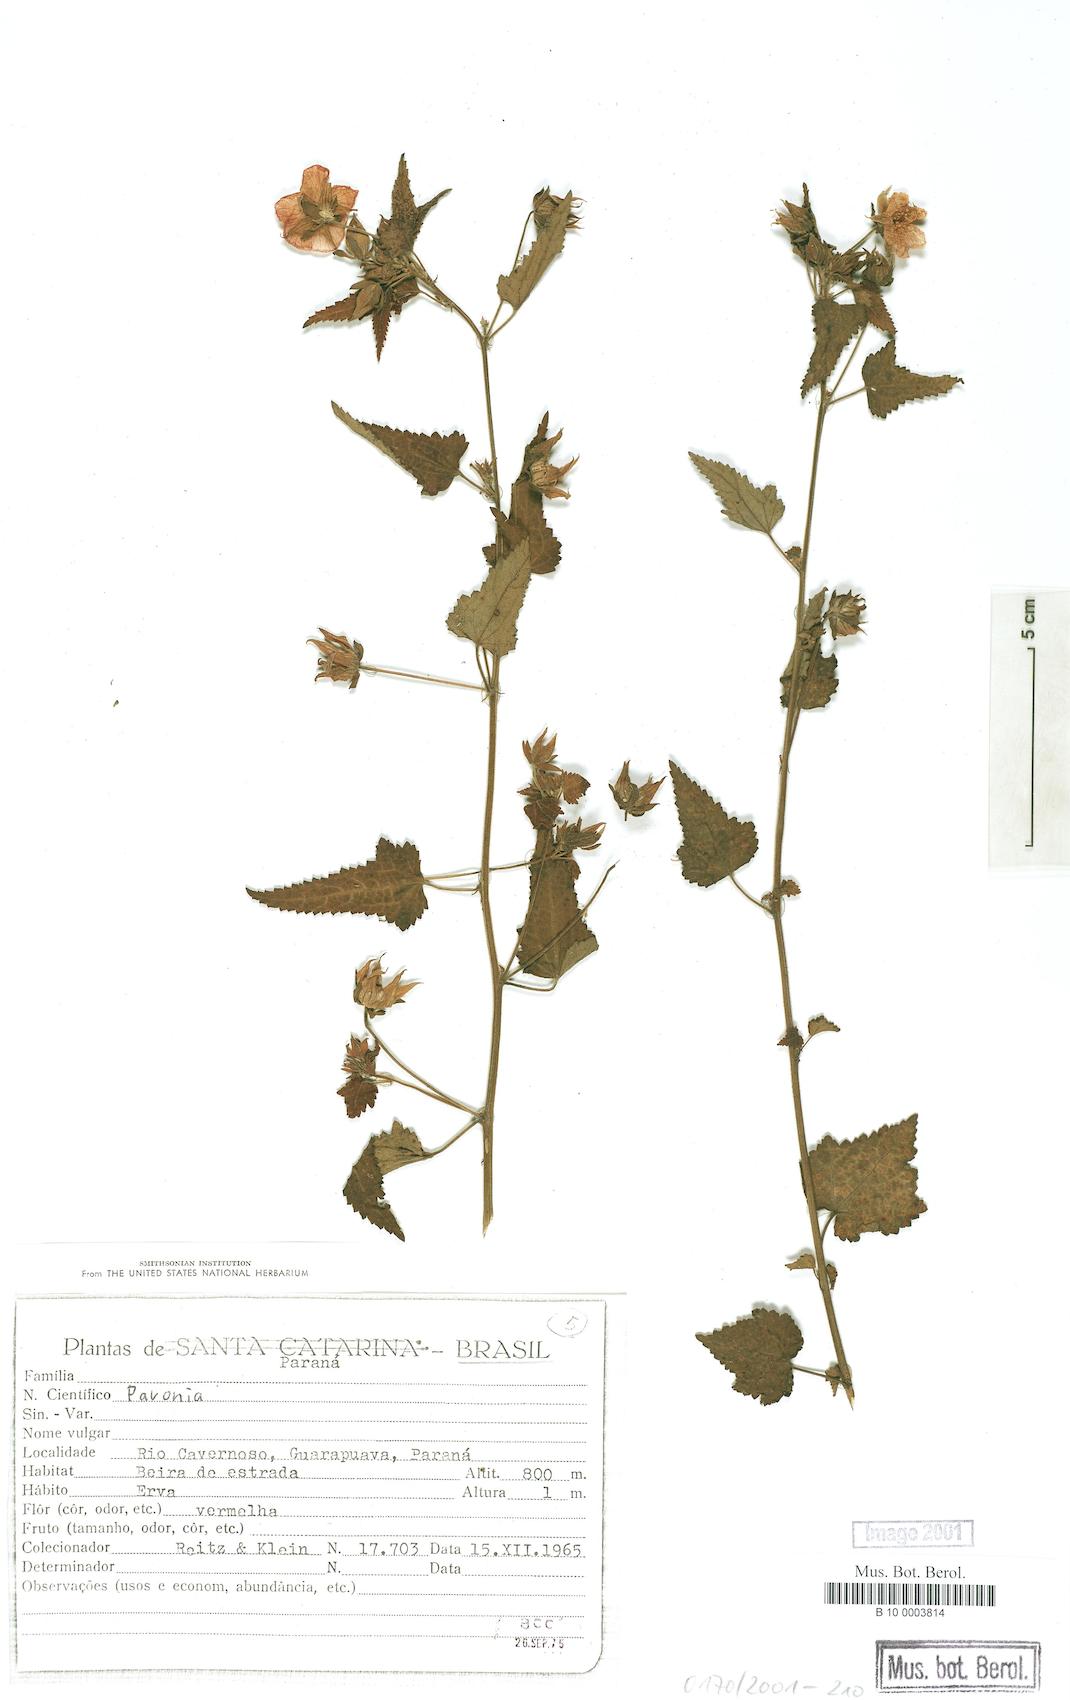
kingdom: Plantae
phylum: Tracheophyta
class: Magnoliopsida
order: Malvales
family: Malvaceae
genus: Pavonia
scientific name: Pavonia
